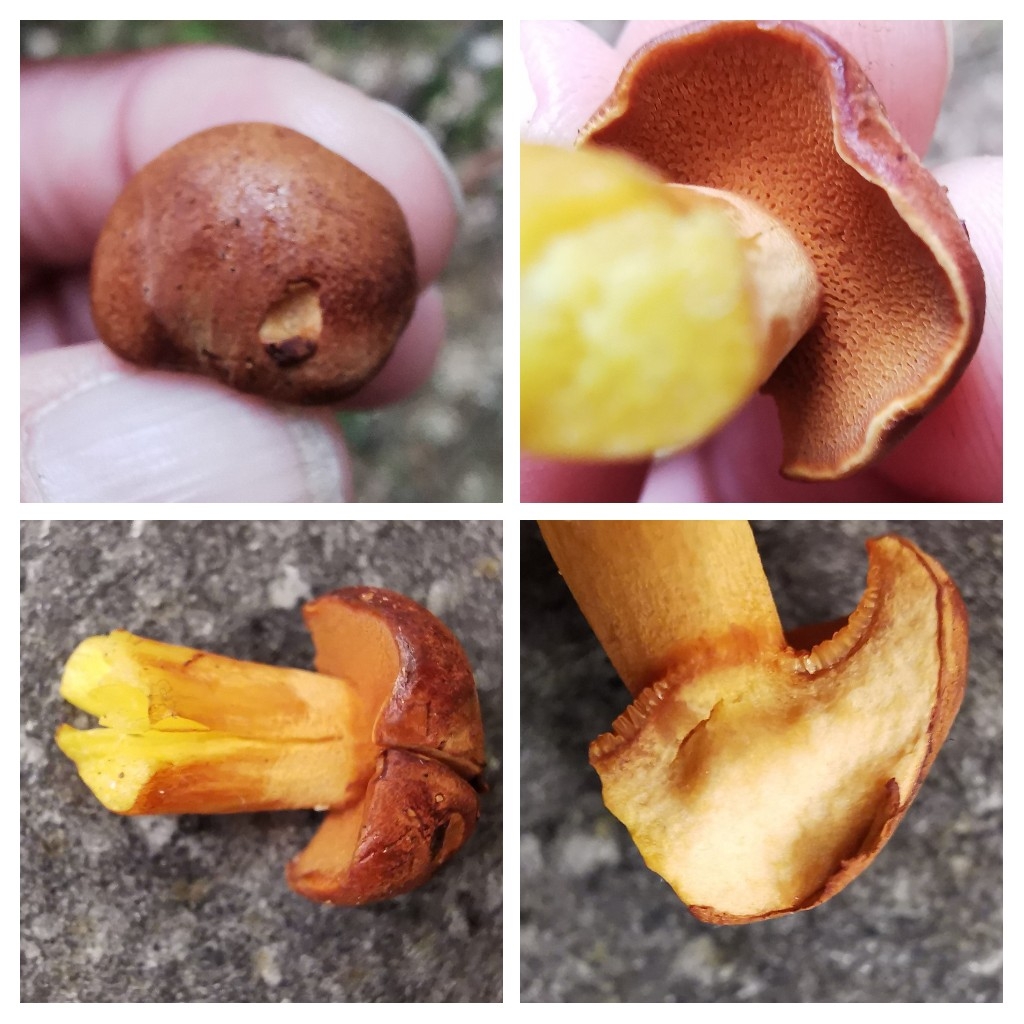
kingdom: Fungi
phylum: Basidiomycota
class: Agaricomycetes
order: Boletales
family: Boletaceae
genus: Chalciporus
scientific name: Chalciporus piperatus
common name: peberrørhat
